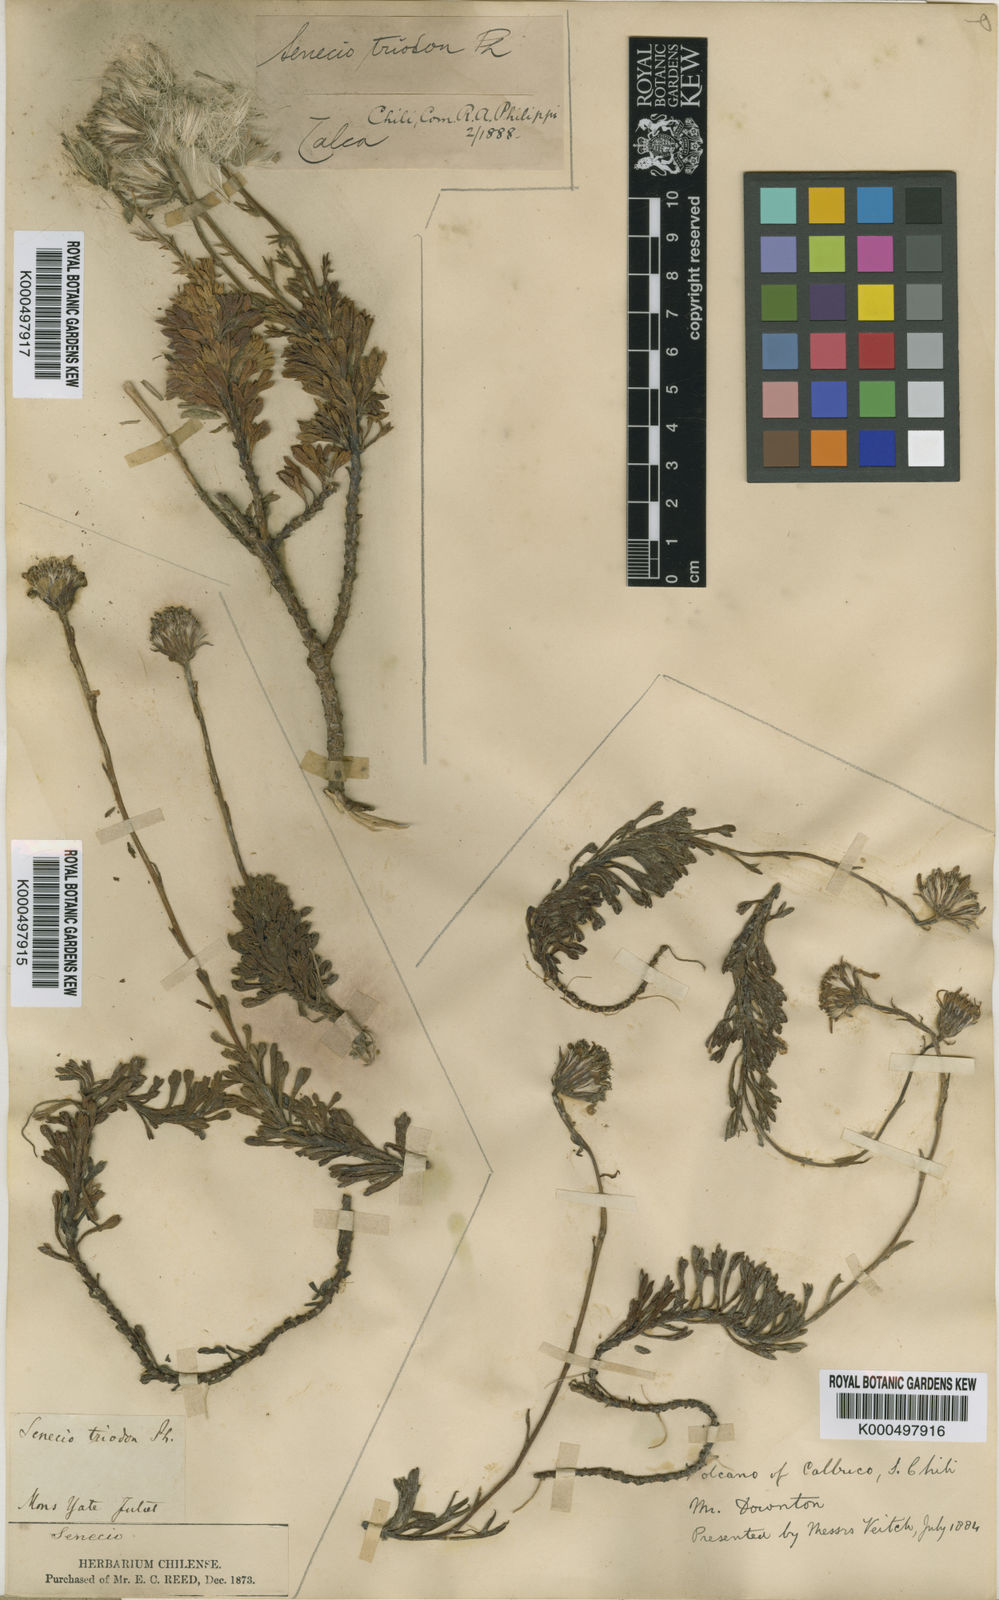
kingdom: Plantae
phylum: Tracheophyta
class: Magnoliopsida
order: Asterales
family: Asteraceae
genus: Senecio
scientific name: Senecio triodon
